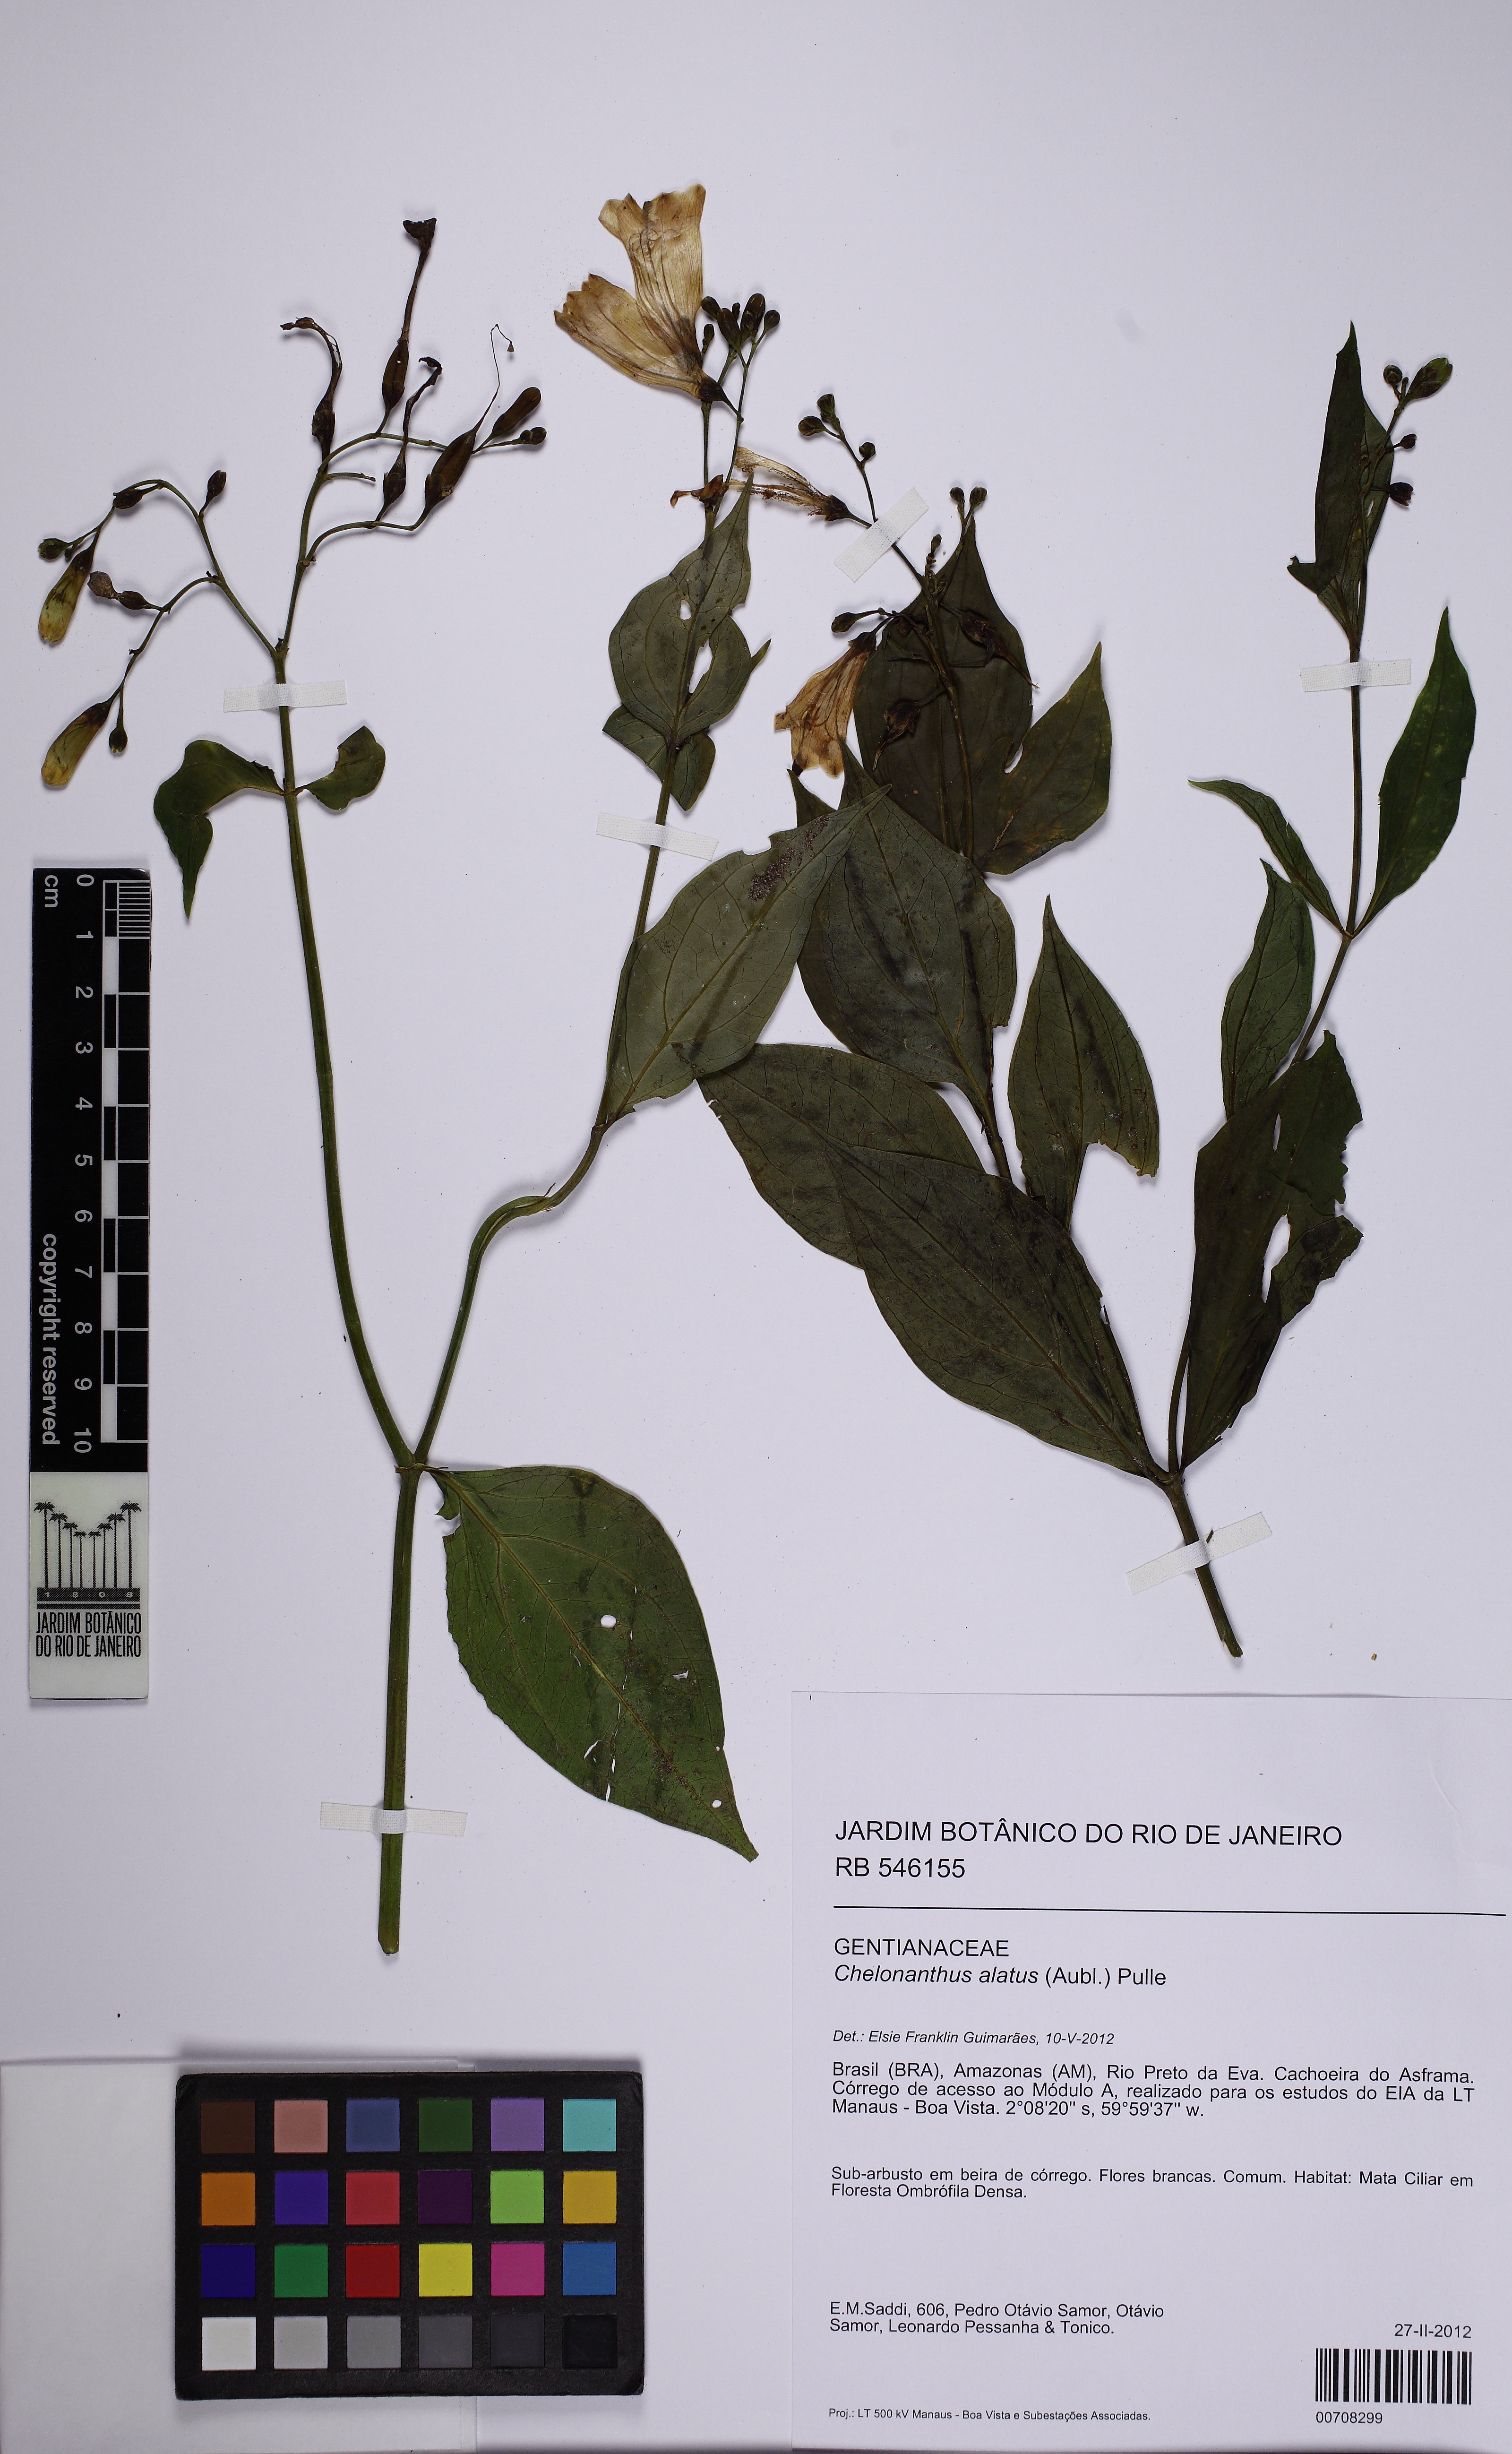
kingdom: Plantae
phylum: Tracheophyta
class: Magnoliopsida
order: Gentianales
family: Gentianaceae
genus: Chelonanthus
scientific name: Chelonanthus alatus
